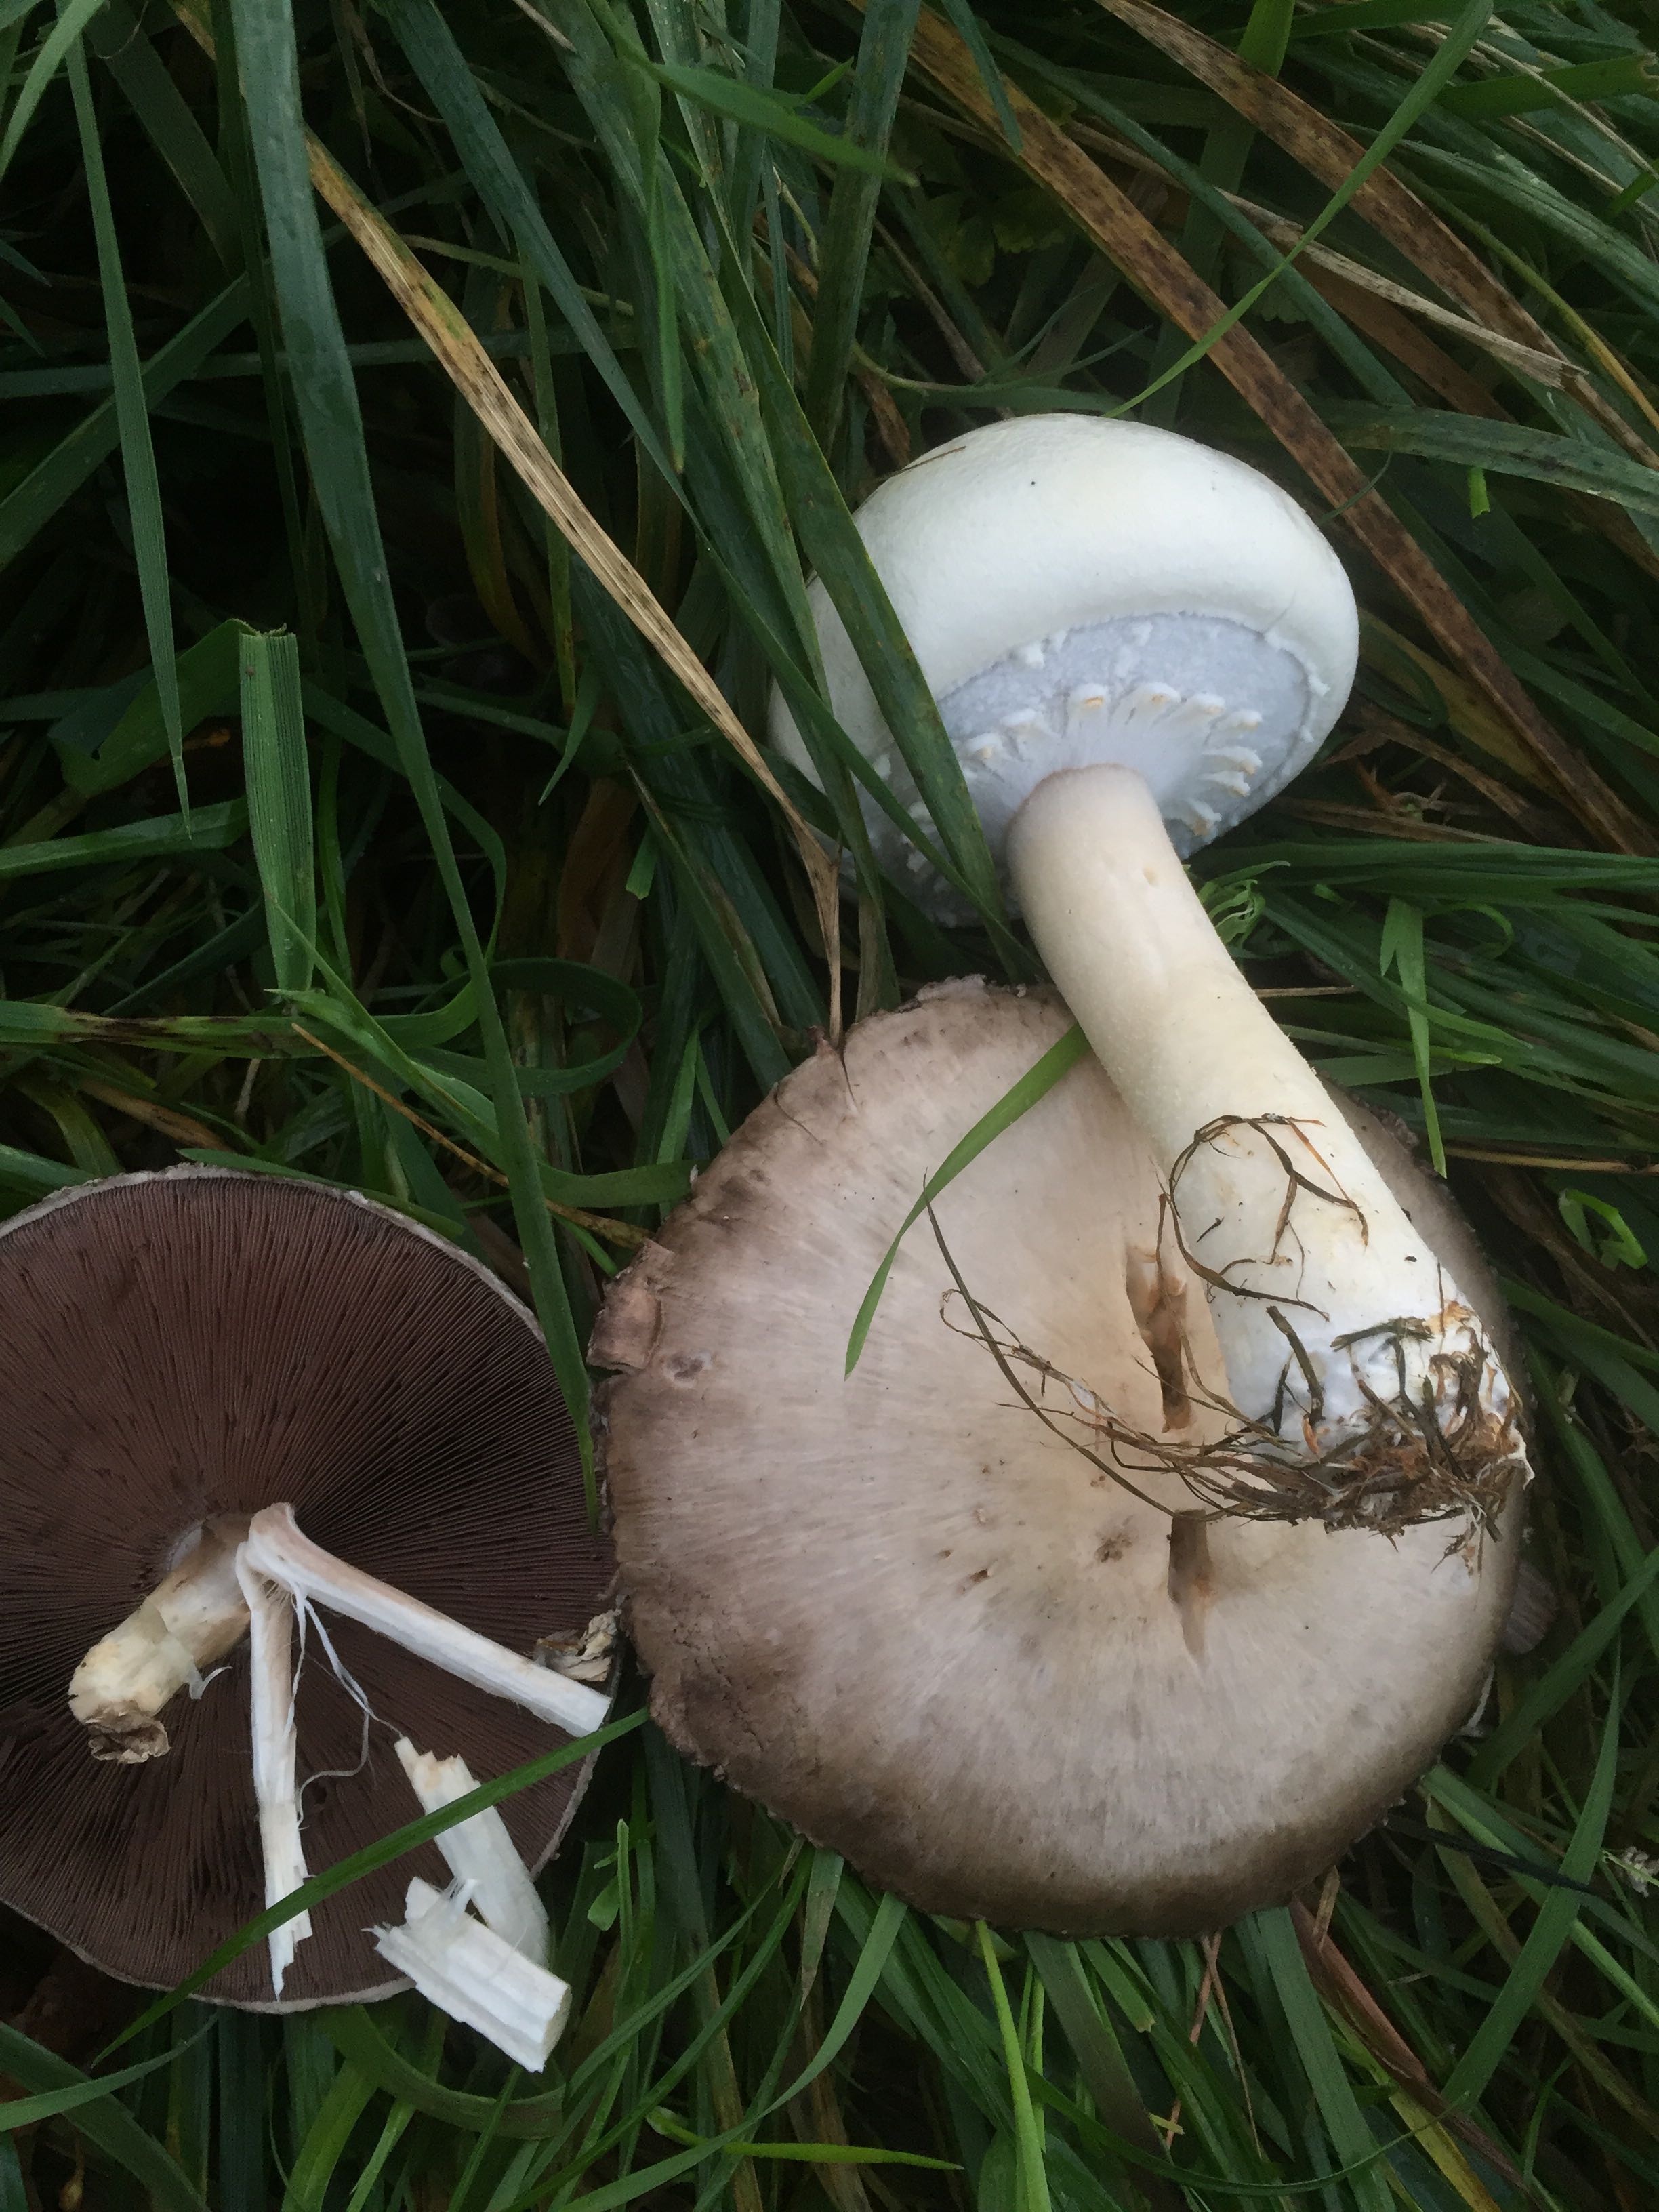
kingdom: Fungi
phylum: Basidiomycota
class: Agaricomycetes
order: Agaricales
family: Agaricaceae
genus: Agaricus
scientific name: Agaricus arvensis
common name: ager-champignon
